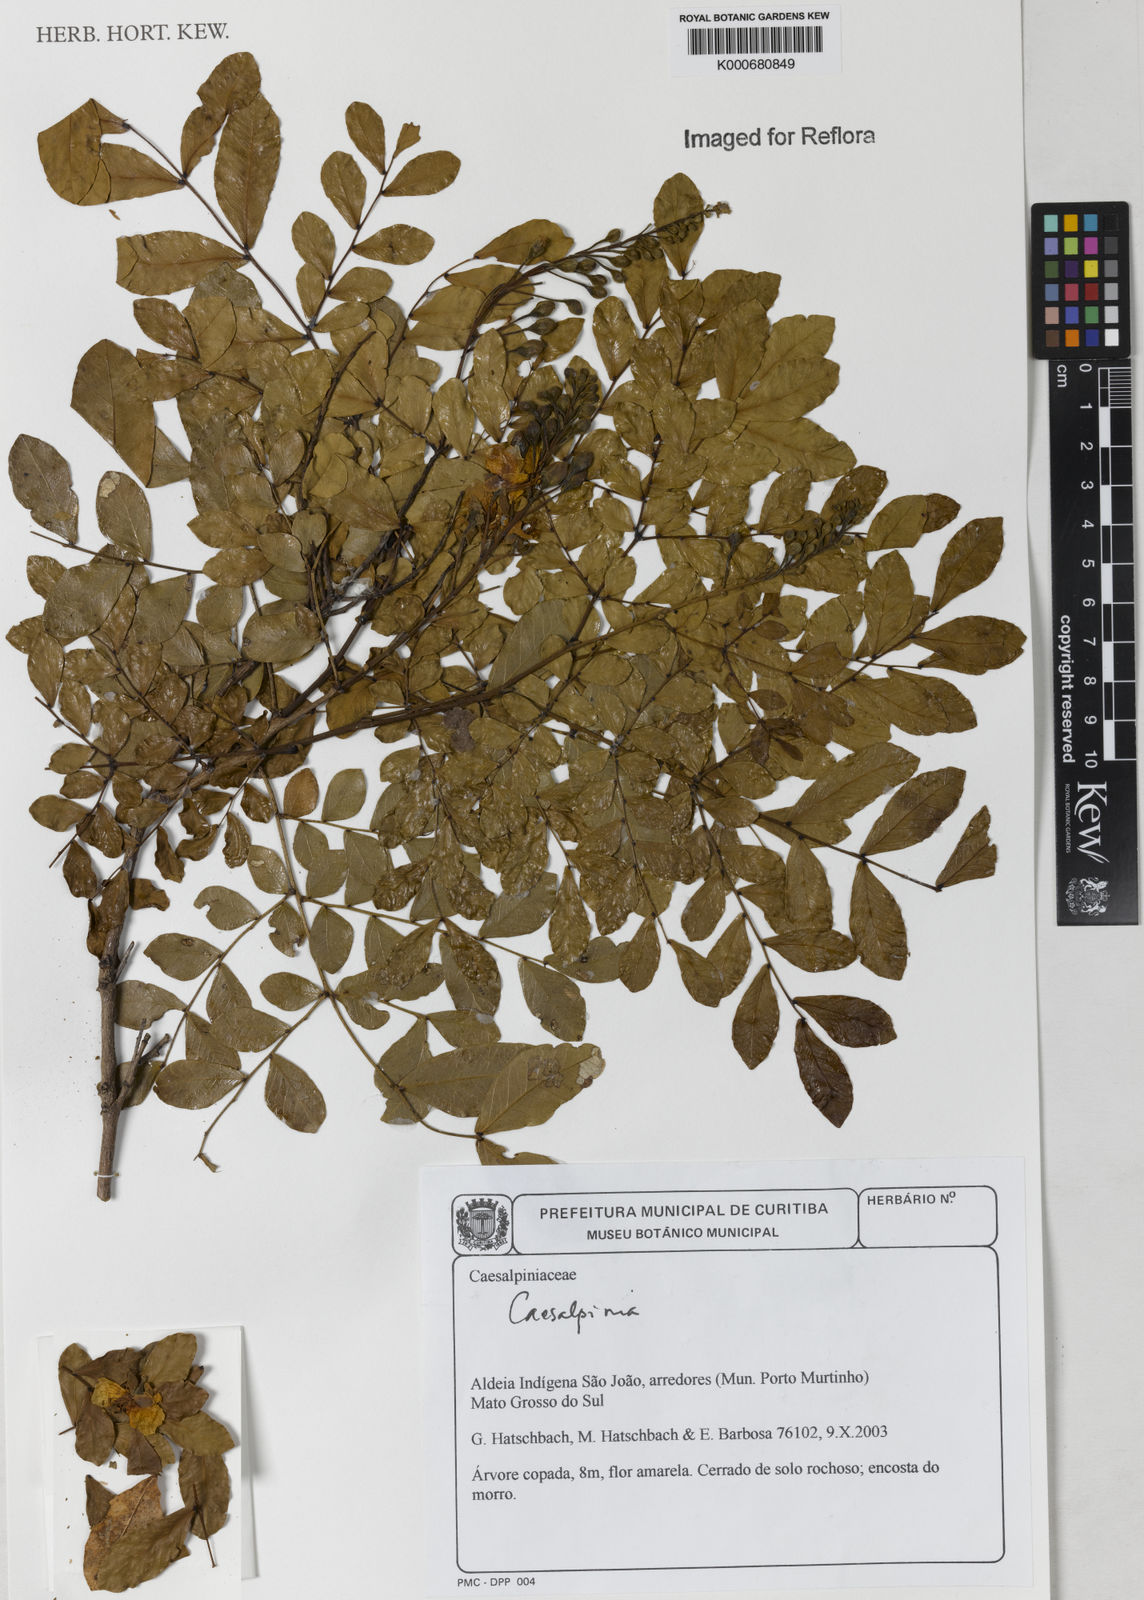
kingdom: Plantae
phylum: Tracheophyta
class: Magnoliopsida
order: Fabales
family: Fabaceae
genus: Caesalpinia
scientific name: Caesalpinia
